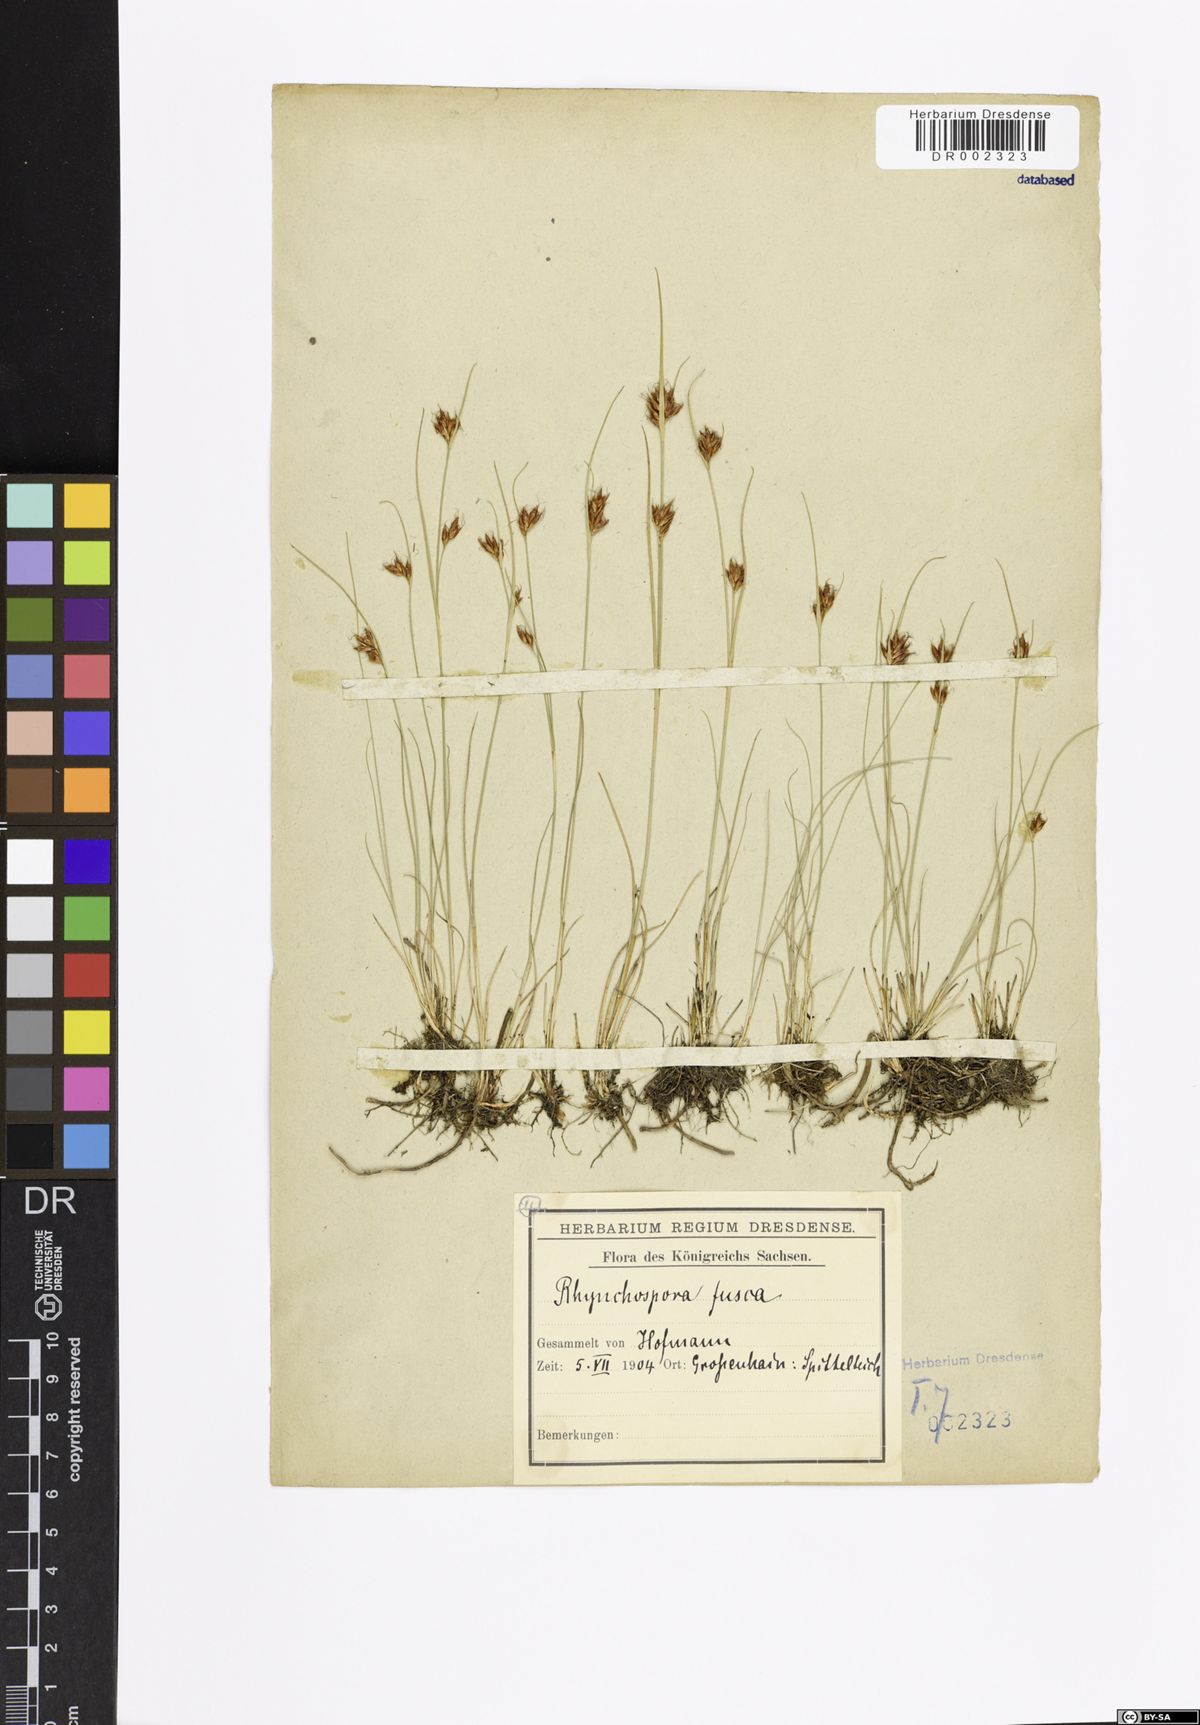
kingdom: Plantae
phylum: Tracheophyta
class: Liliopsida
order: Poales
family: Cyperaceae
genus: Rhynchospora
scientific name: Rhynchospora fusca
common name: Brown beak-sedge
